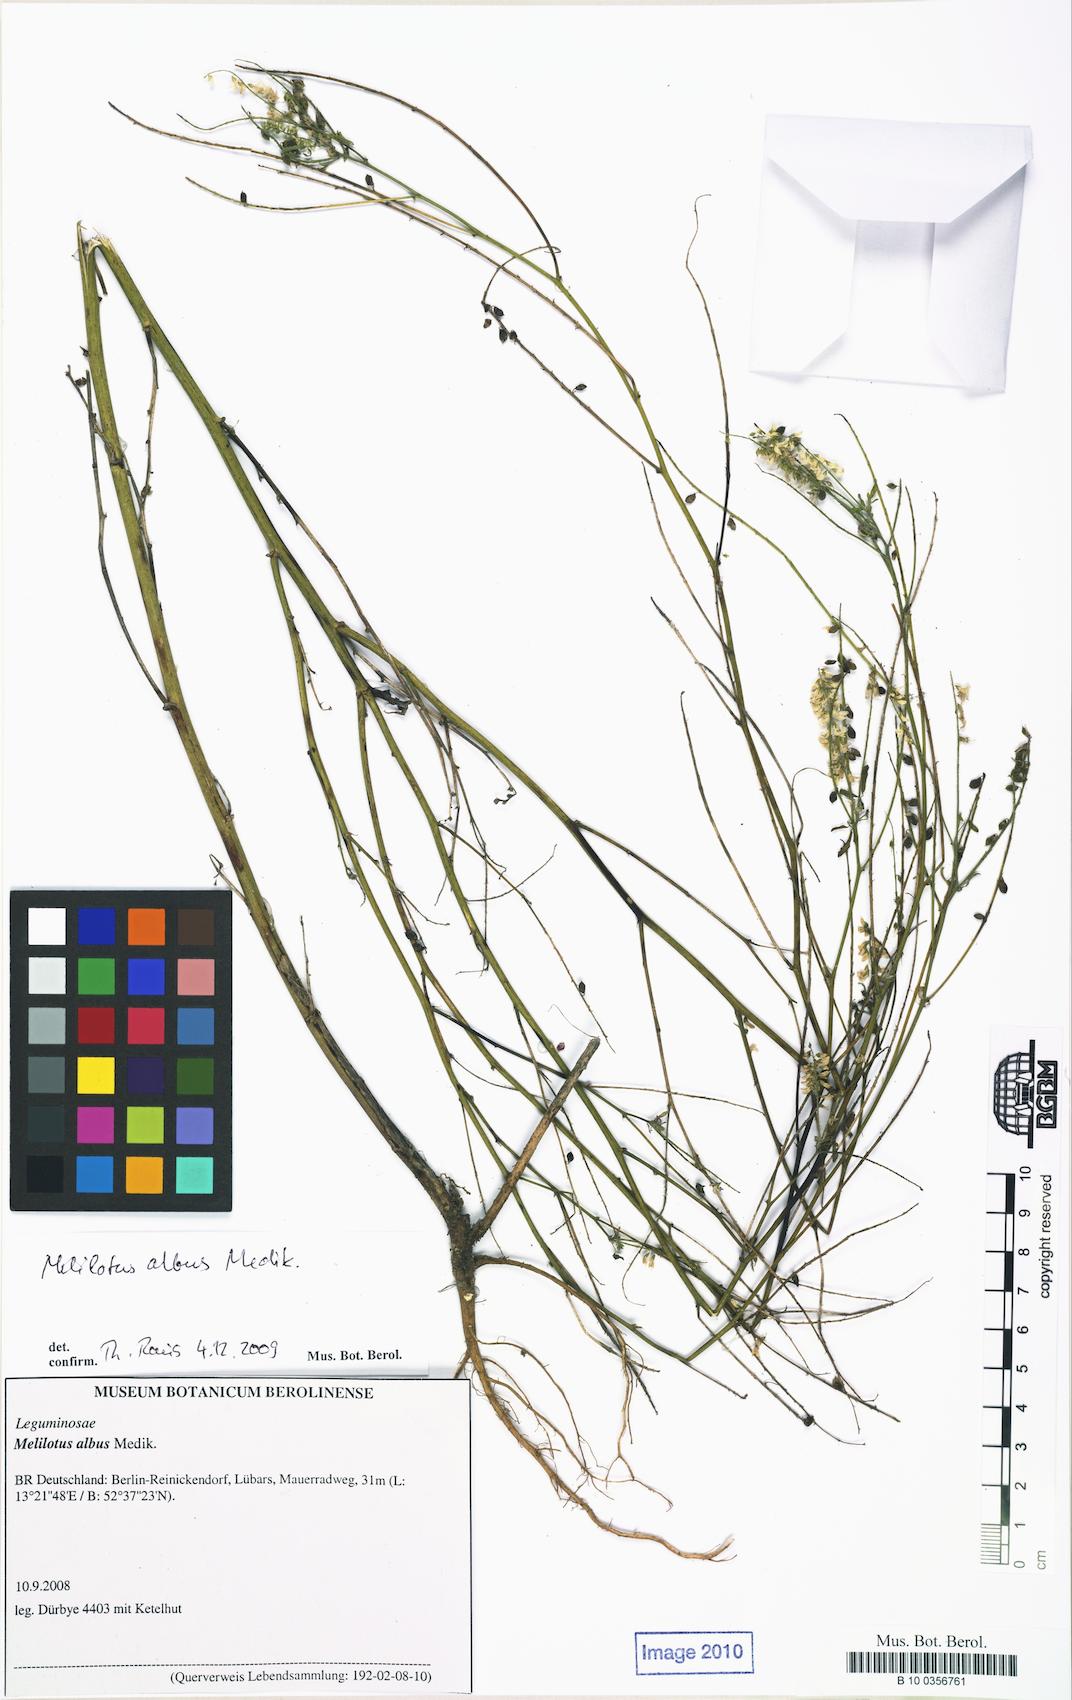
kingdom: Plantae
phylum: Tracheophyta
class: Magnoliopsida
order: Fabales
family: Fabaceae
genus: Melilotus
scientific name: Melilotus albus
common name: White melilot
